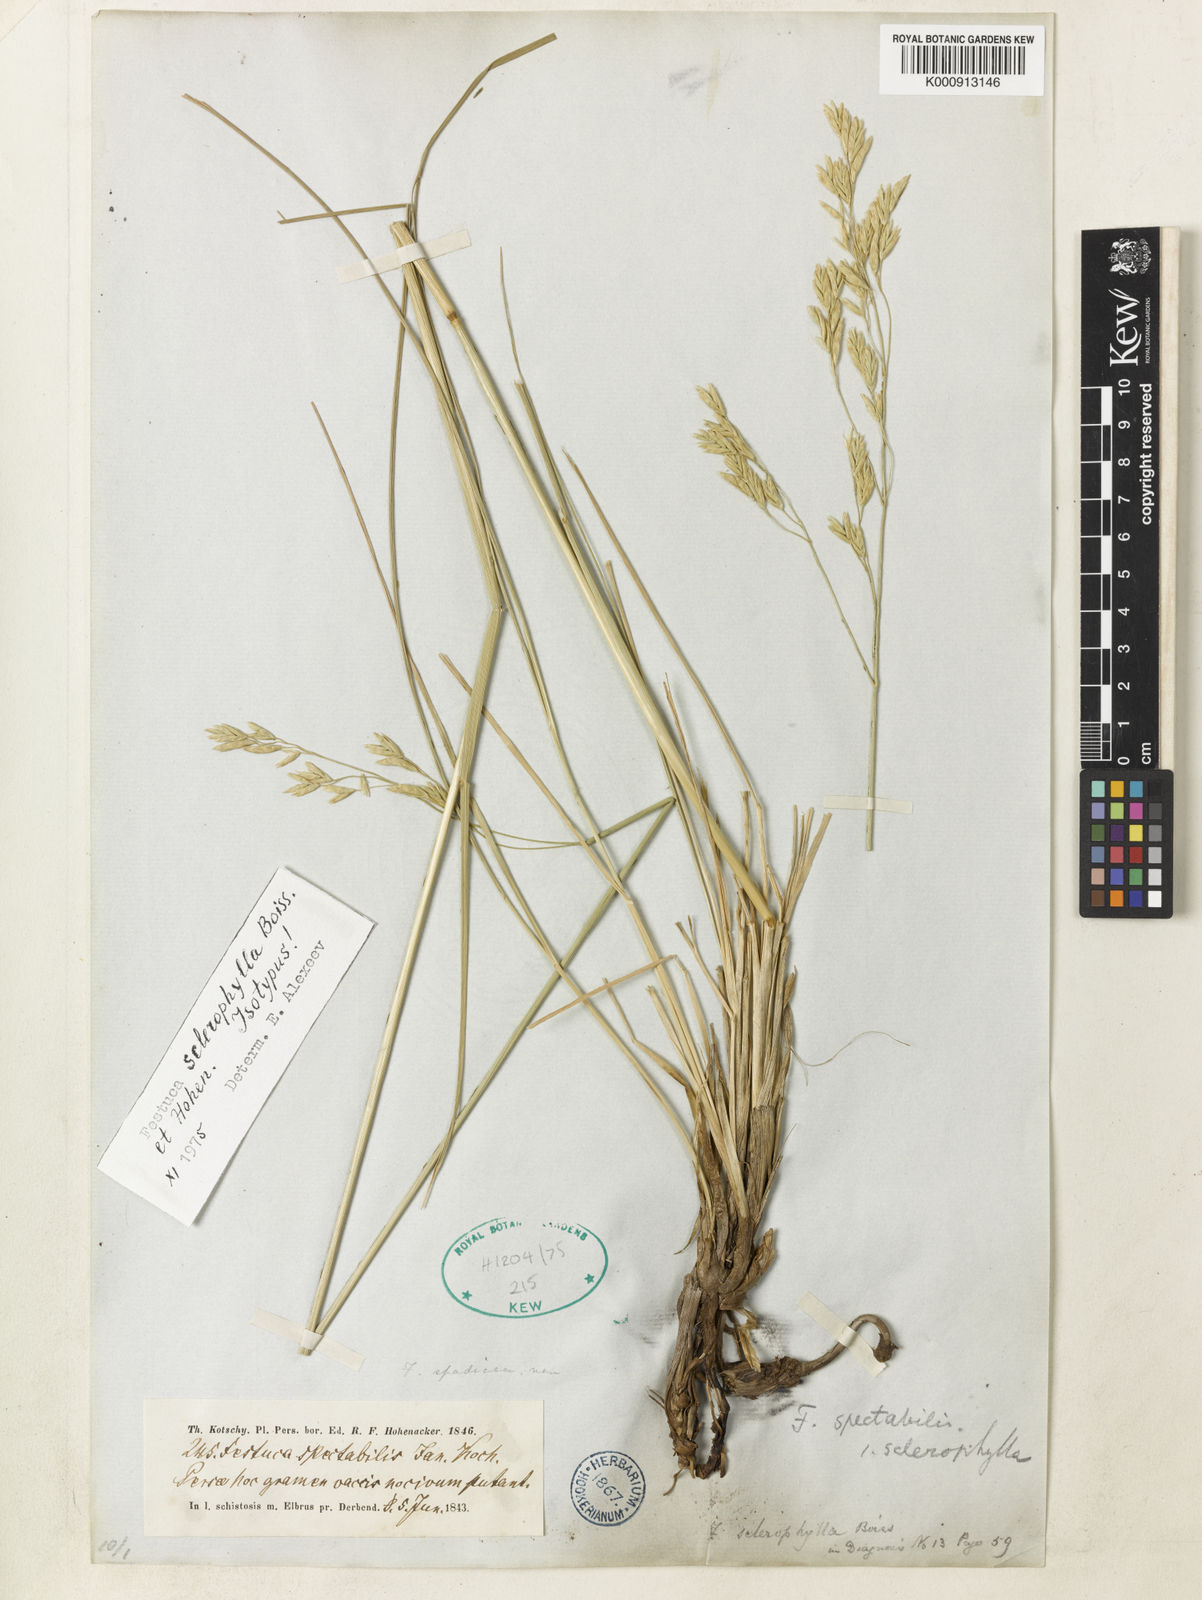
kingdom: Plantae
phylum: Tracheophyta
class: Liliopsida
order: Poales
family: Poaceae
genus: Festuca
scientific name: Festuca sclerophylla
